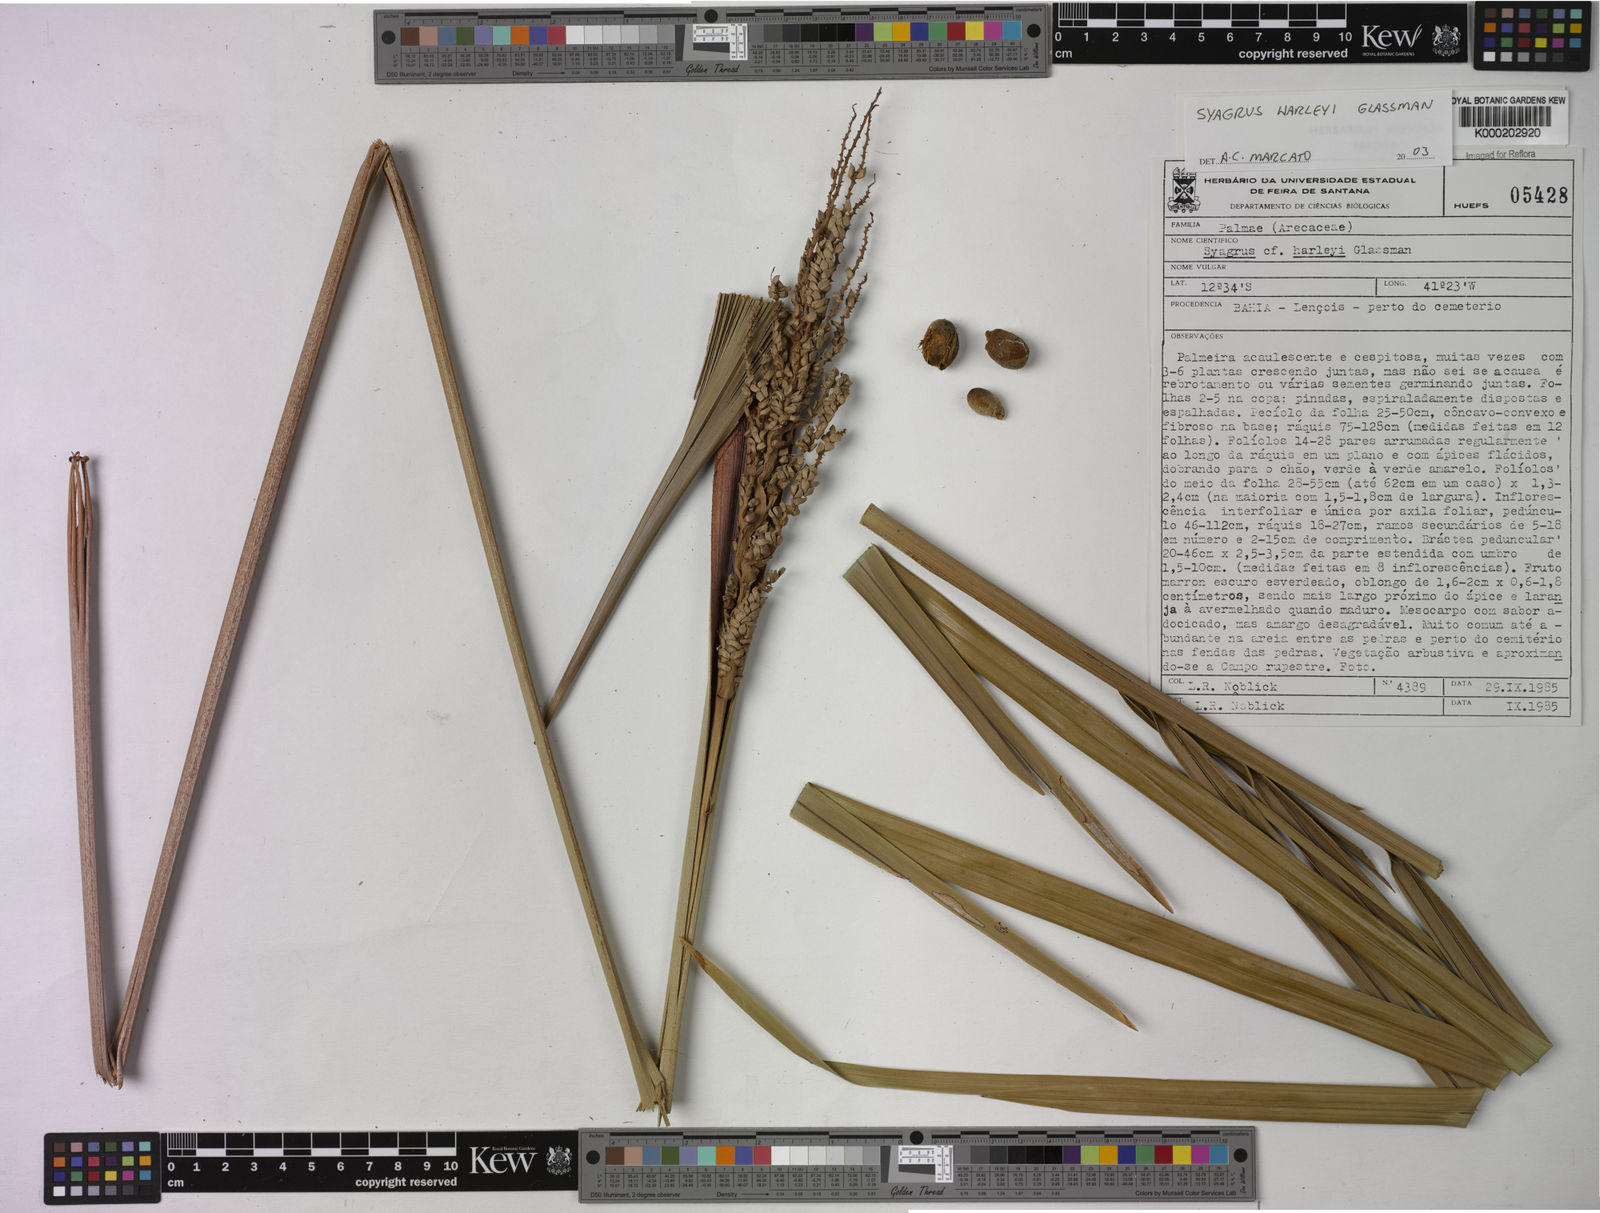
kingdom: Plantae
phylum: Tracheophyta
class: Liliopsida
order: Arecales
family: Arecaceae
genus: Syagrus
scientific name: Syagrus harleyi
